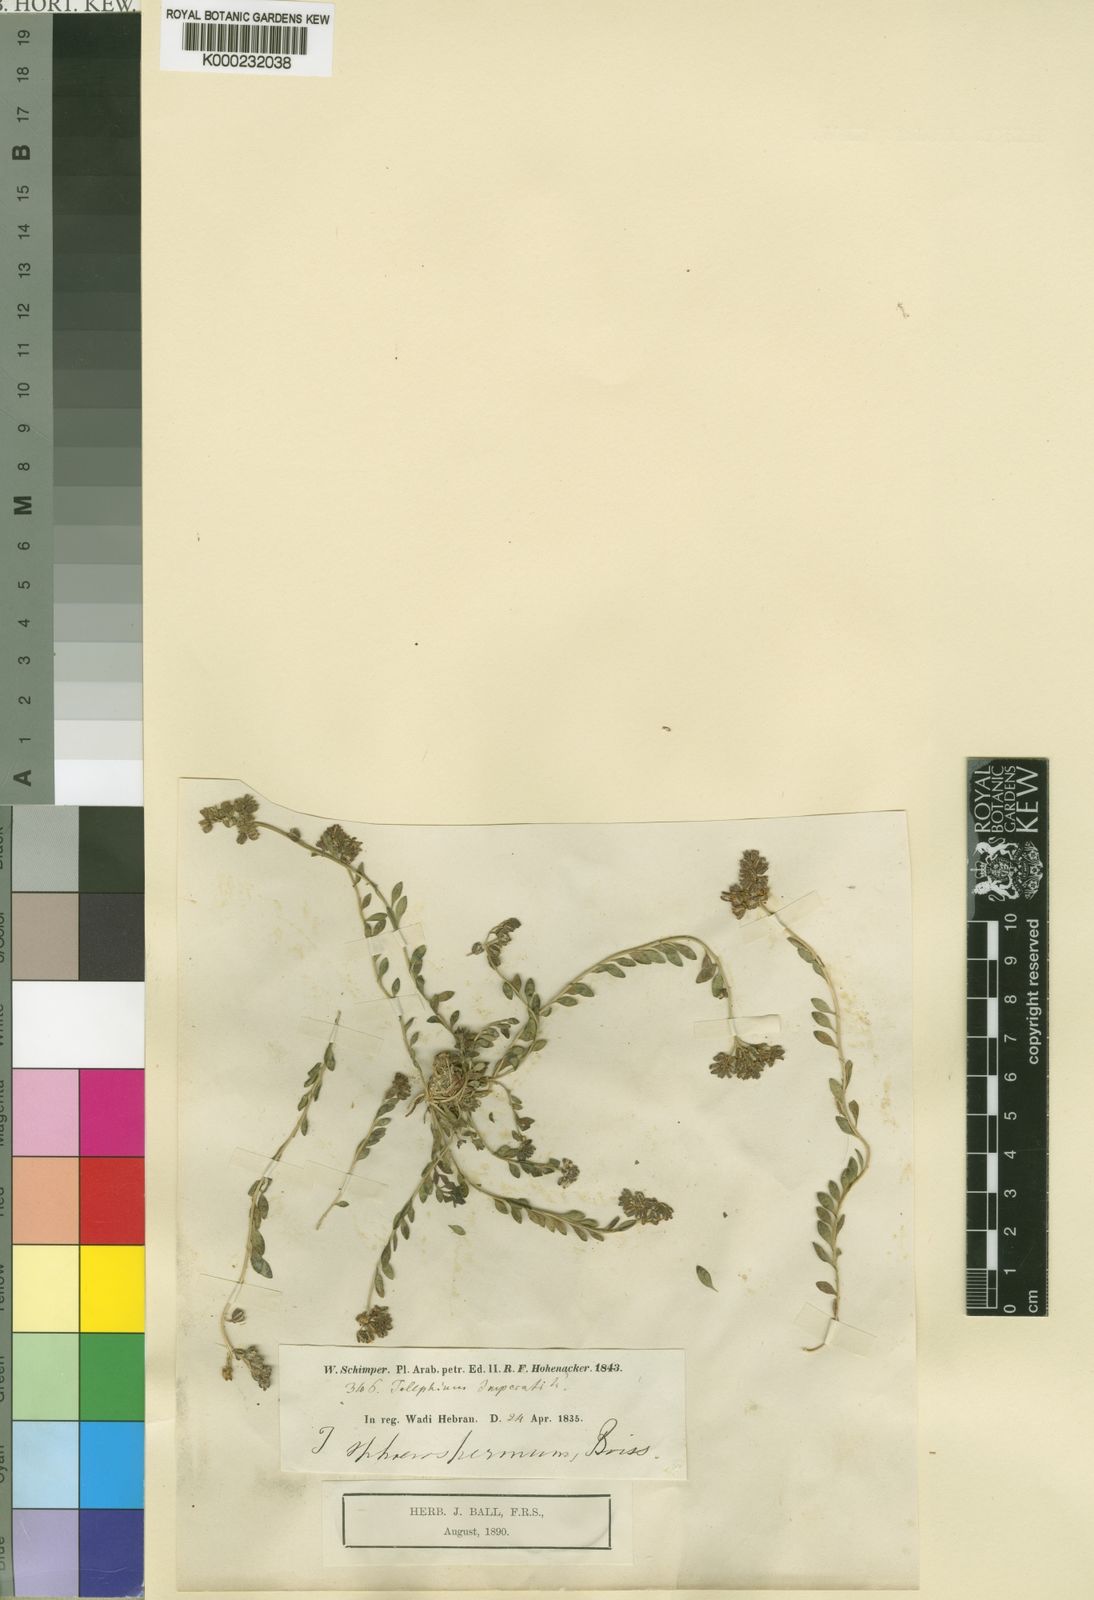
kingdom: Plantae
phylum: Tracheophyta
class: Magnoliopsida
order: Caryophyllales
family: Caryophyllaceae
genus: Telephium
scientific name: Telephium sphaerospermum
